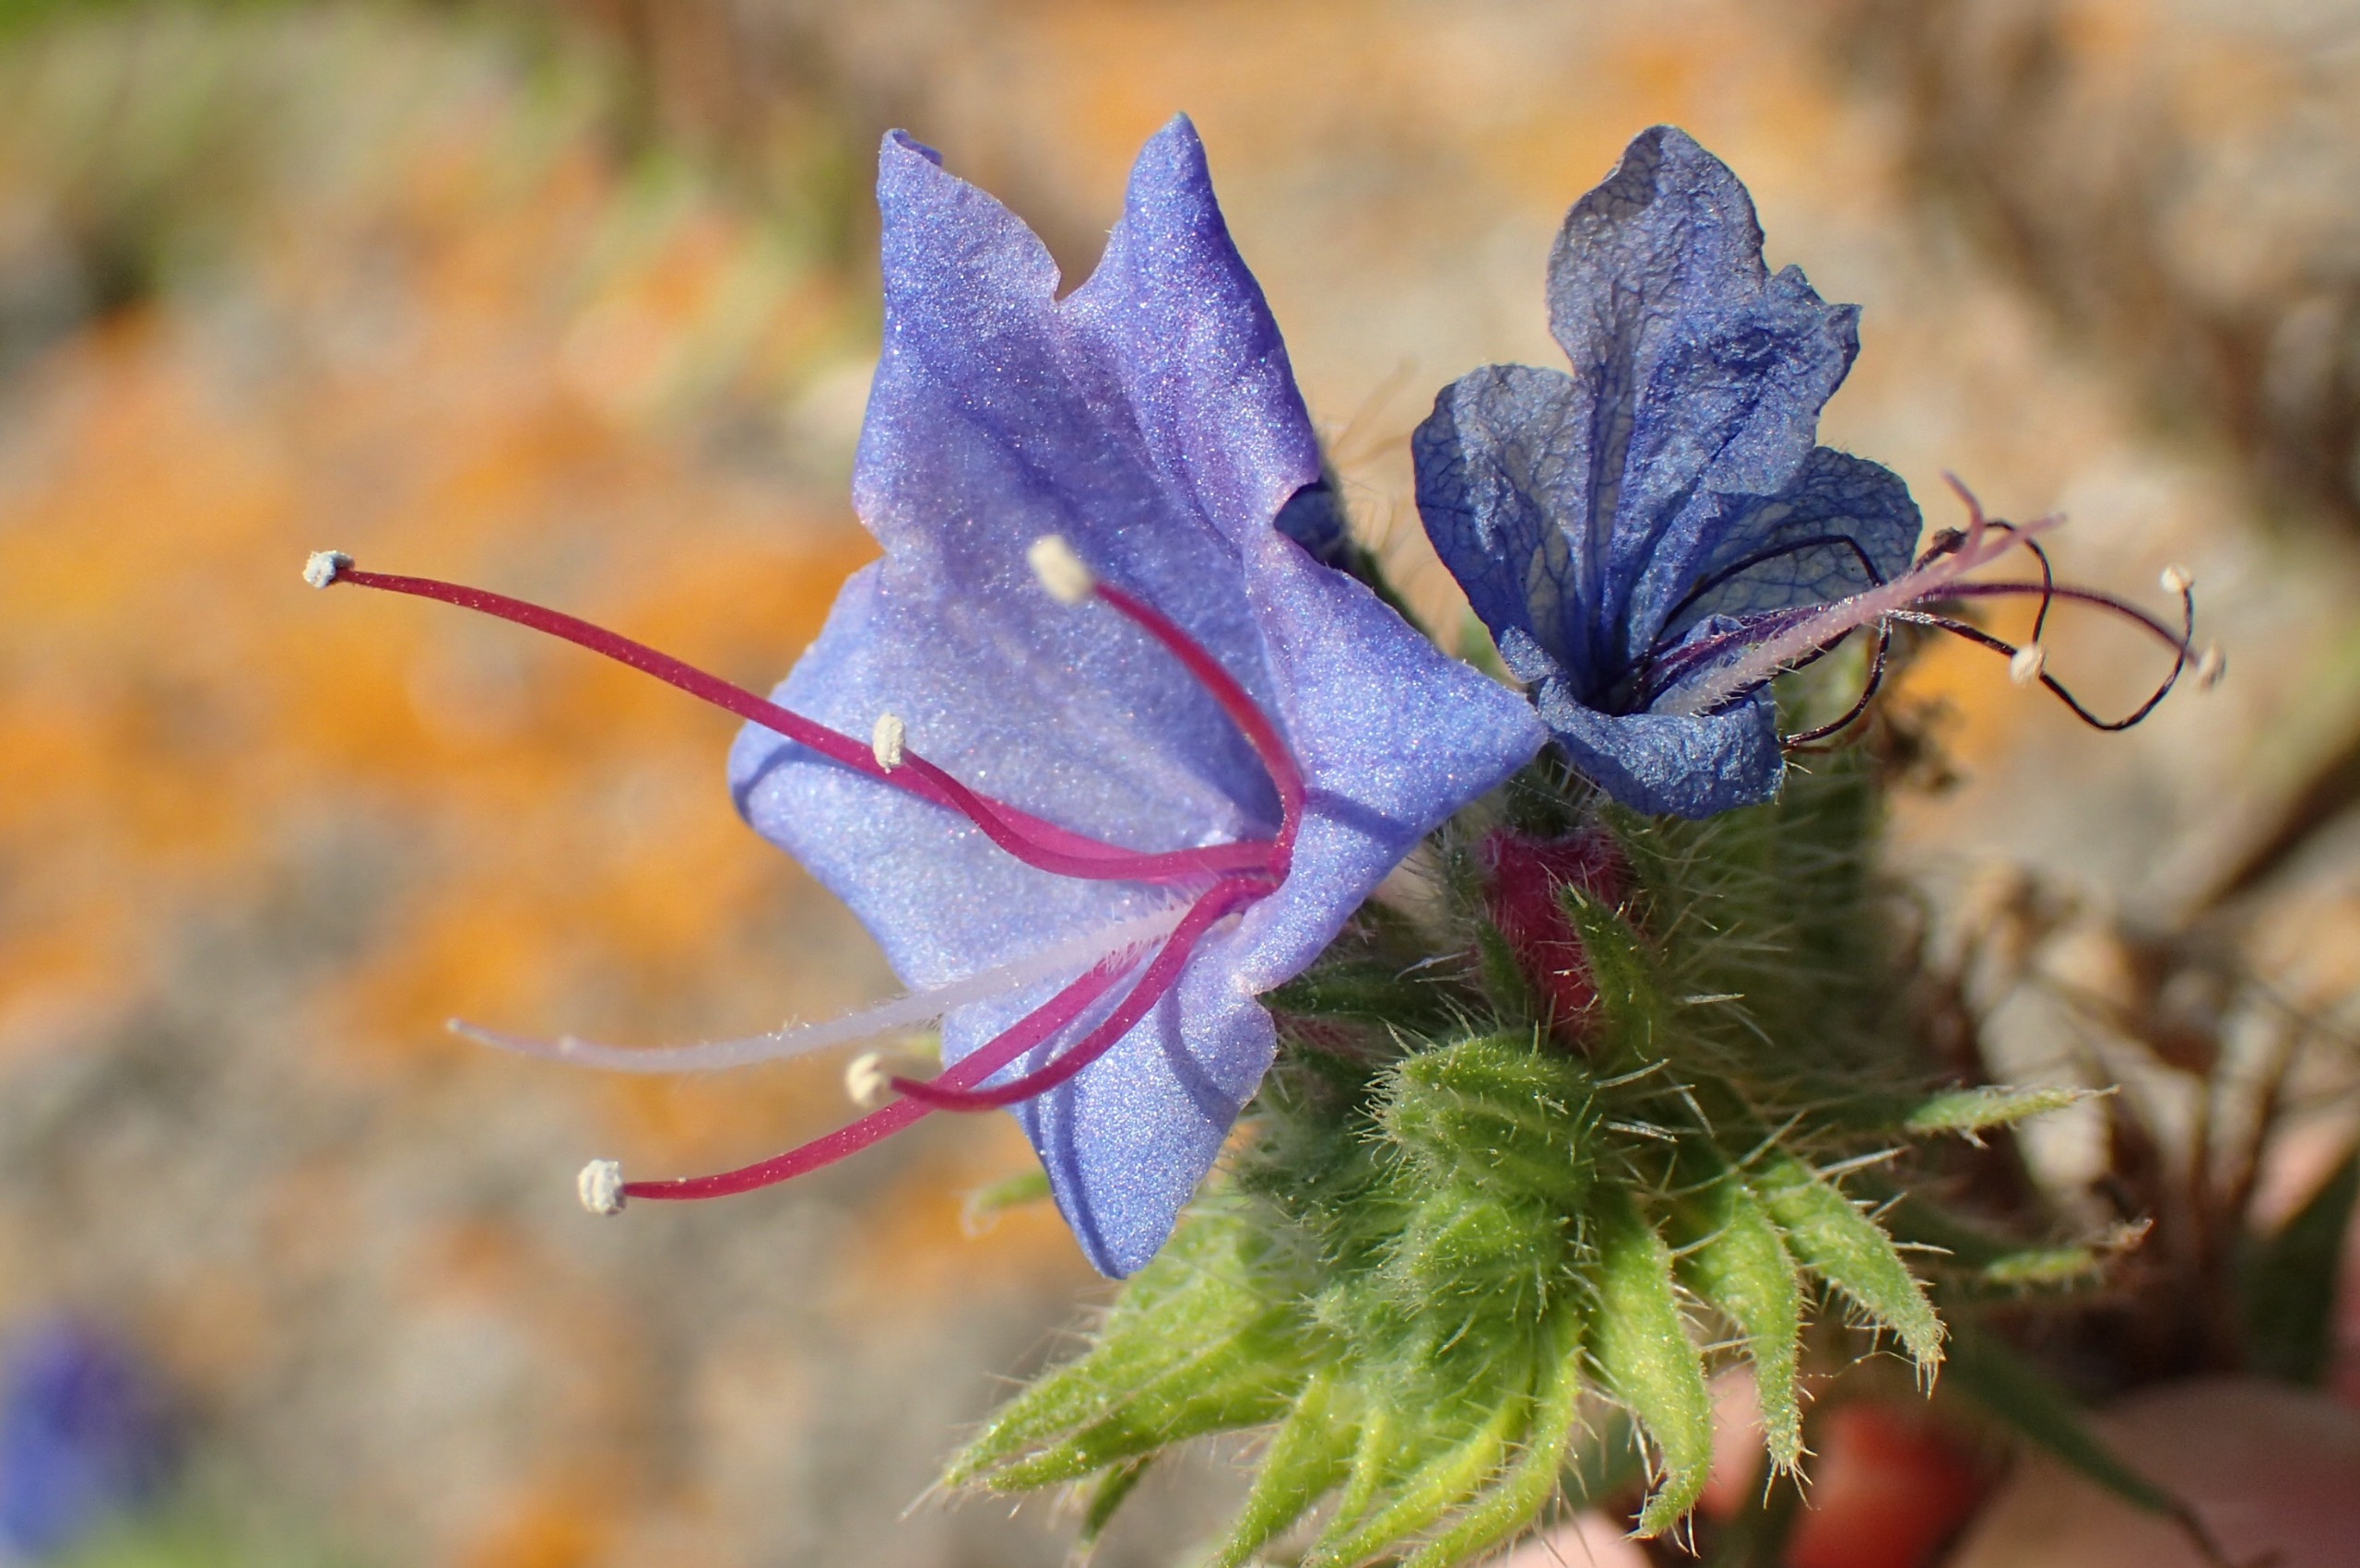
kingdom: Plantae
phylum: Tracheophyta
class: Magnoliopsida
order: Boraginales
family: Boraginaceae
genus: Echium
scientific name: Echium vulgare
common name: Slangehoved
